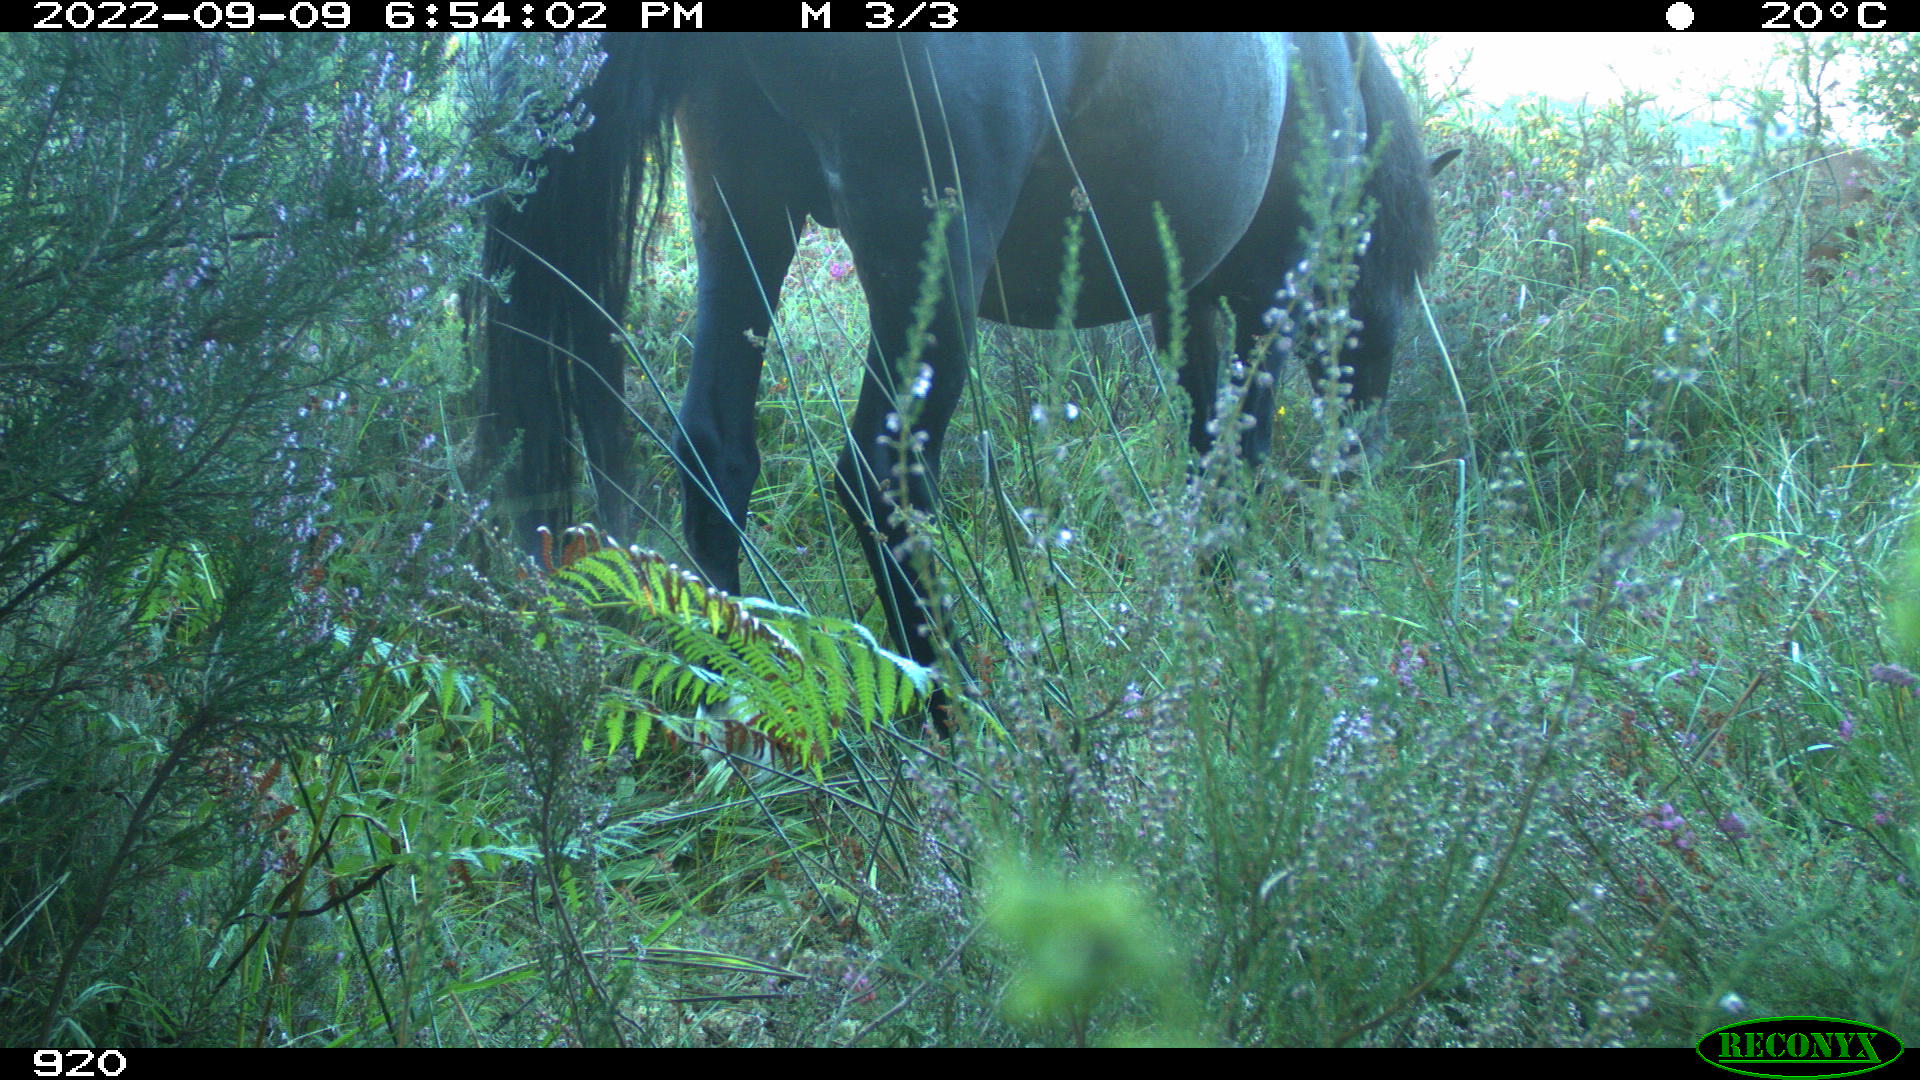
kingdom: Animalia
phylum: Chordata
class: Mammalia
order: Perissodactyla
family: Equidae
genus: Equus
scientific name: Equus caballus
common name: Horse
